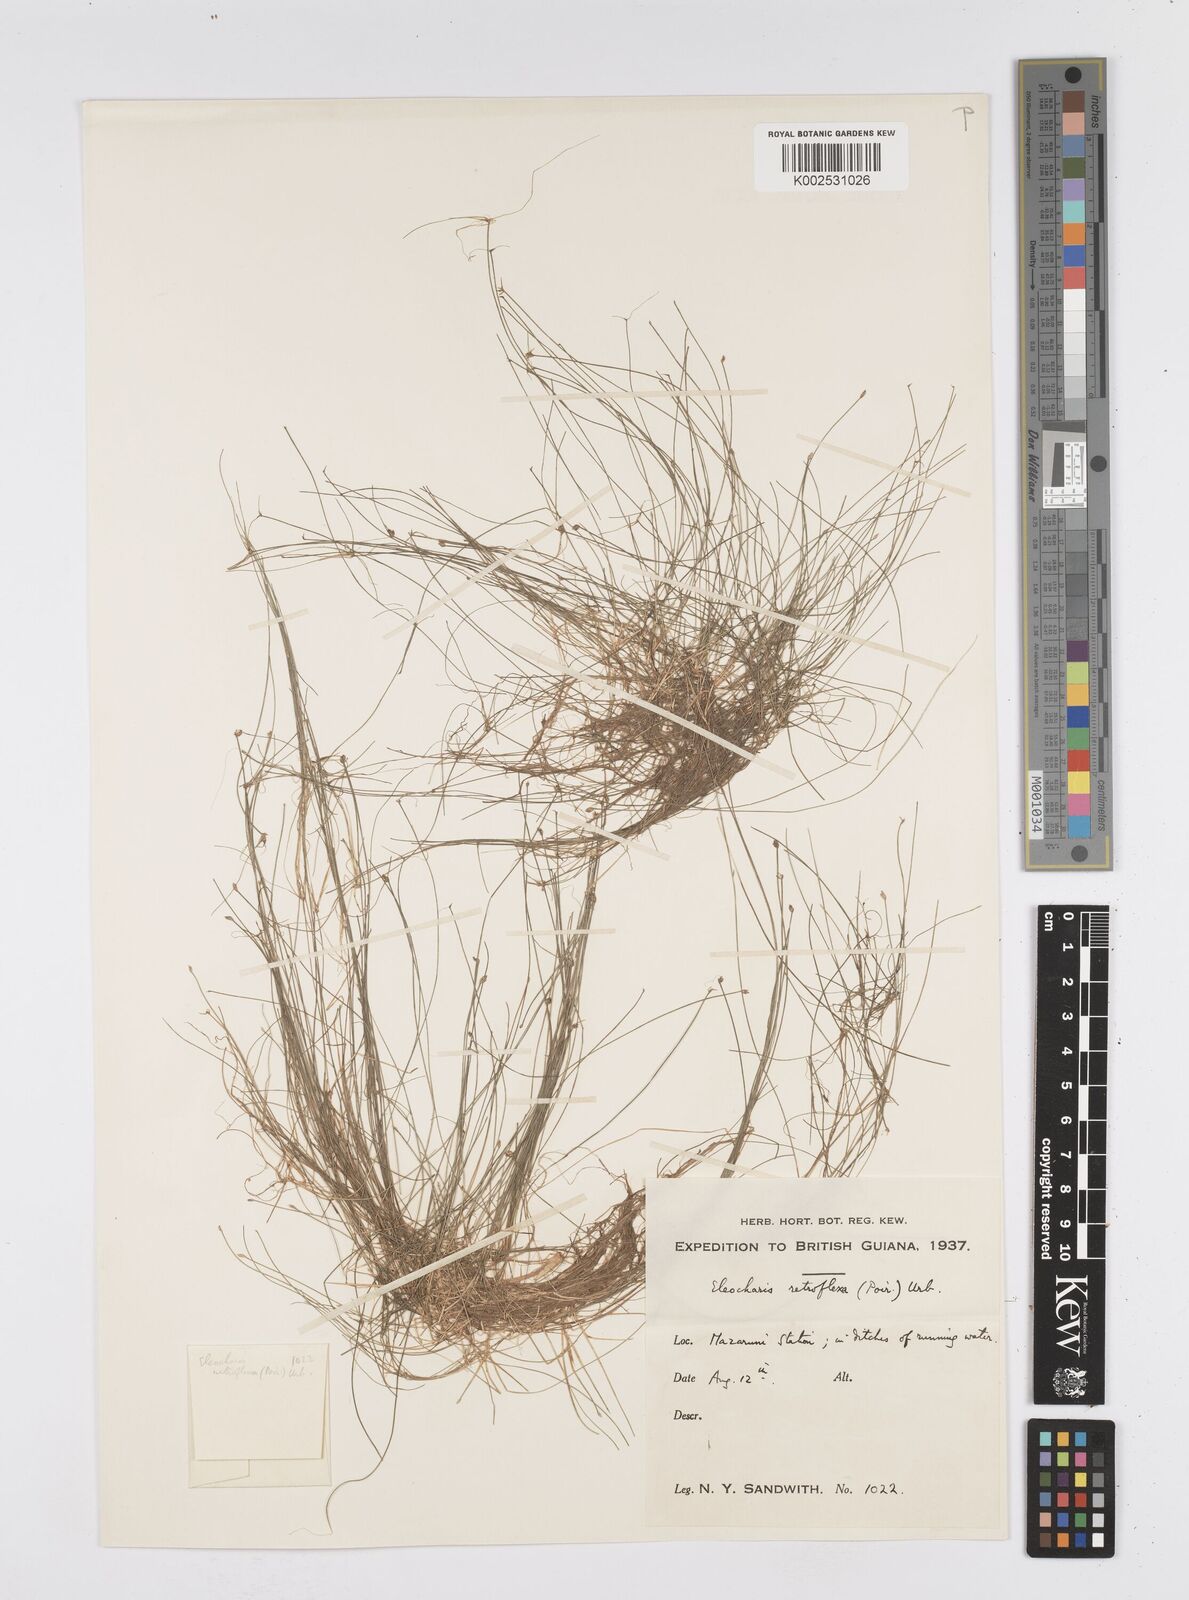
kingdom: Plantae
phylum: Tracheophyta
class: Liliopsida
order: Poales
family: Cyperaceae
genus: Eleocharis
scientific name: Eleocharis retroflexa
